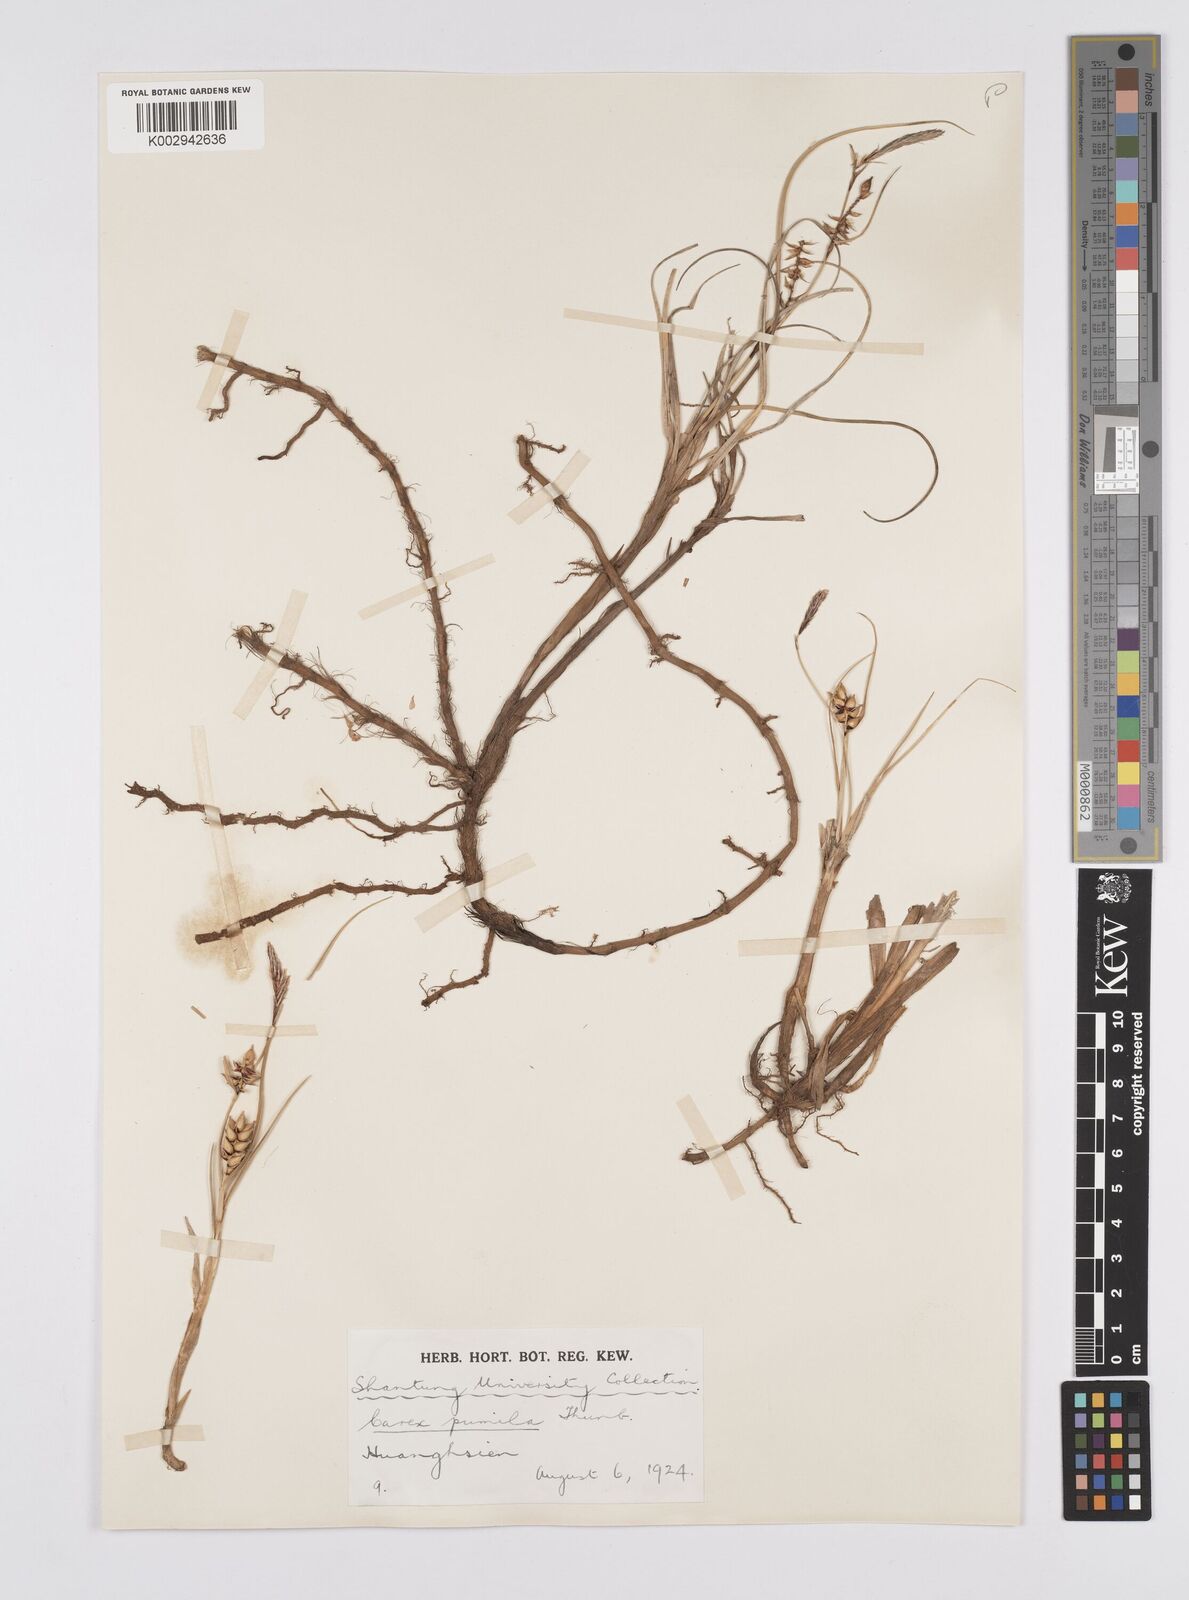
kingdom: Plantae
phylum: Tracheophyta
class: Liliopsida
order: Poales
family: Cyperaceae
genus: Carex
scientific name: Carex pumila
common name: Dwarf sedge
